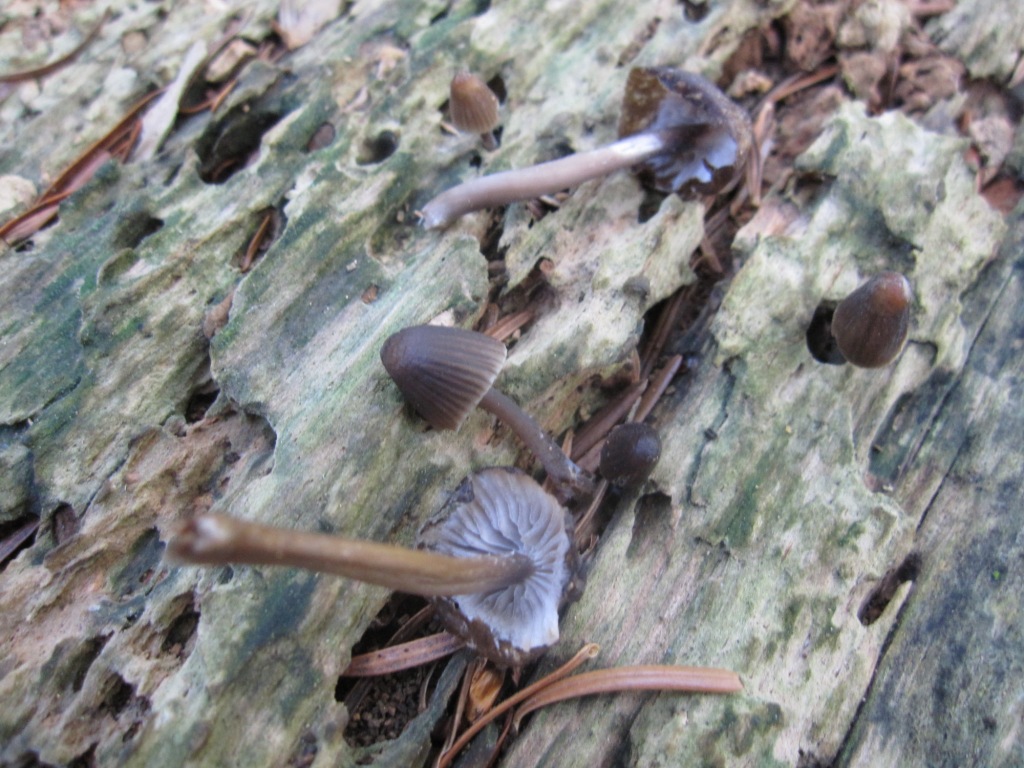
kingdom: Fungi
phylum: Basidiomycota
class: Agaricomycetes
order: Agaricales
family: Mycenaceae
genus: Mycena
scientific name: Mycena stipata
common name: stinkende huesvamp
